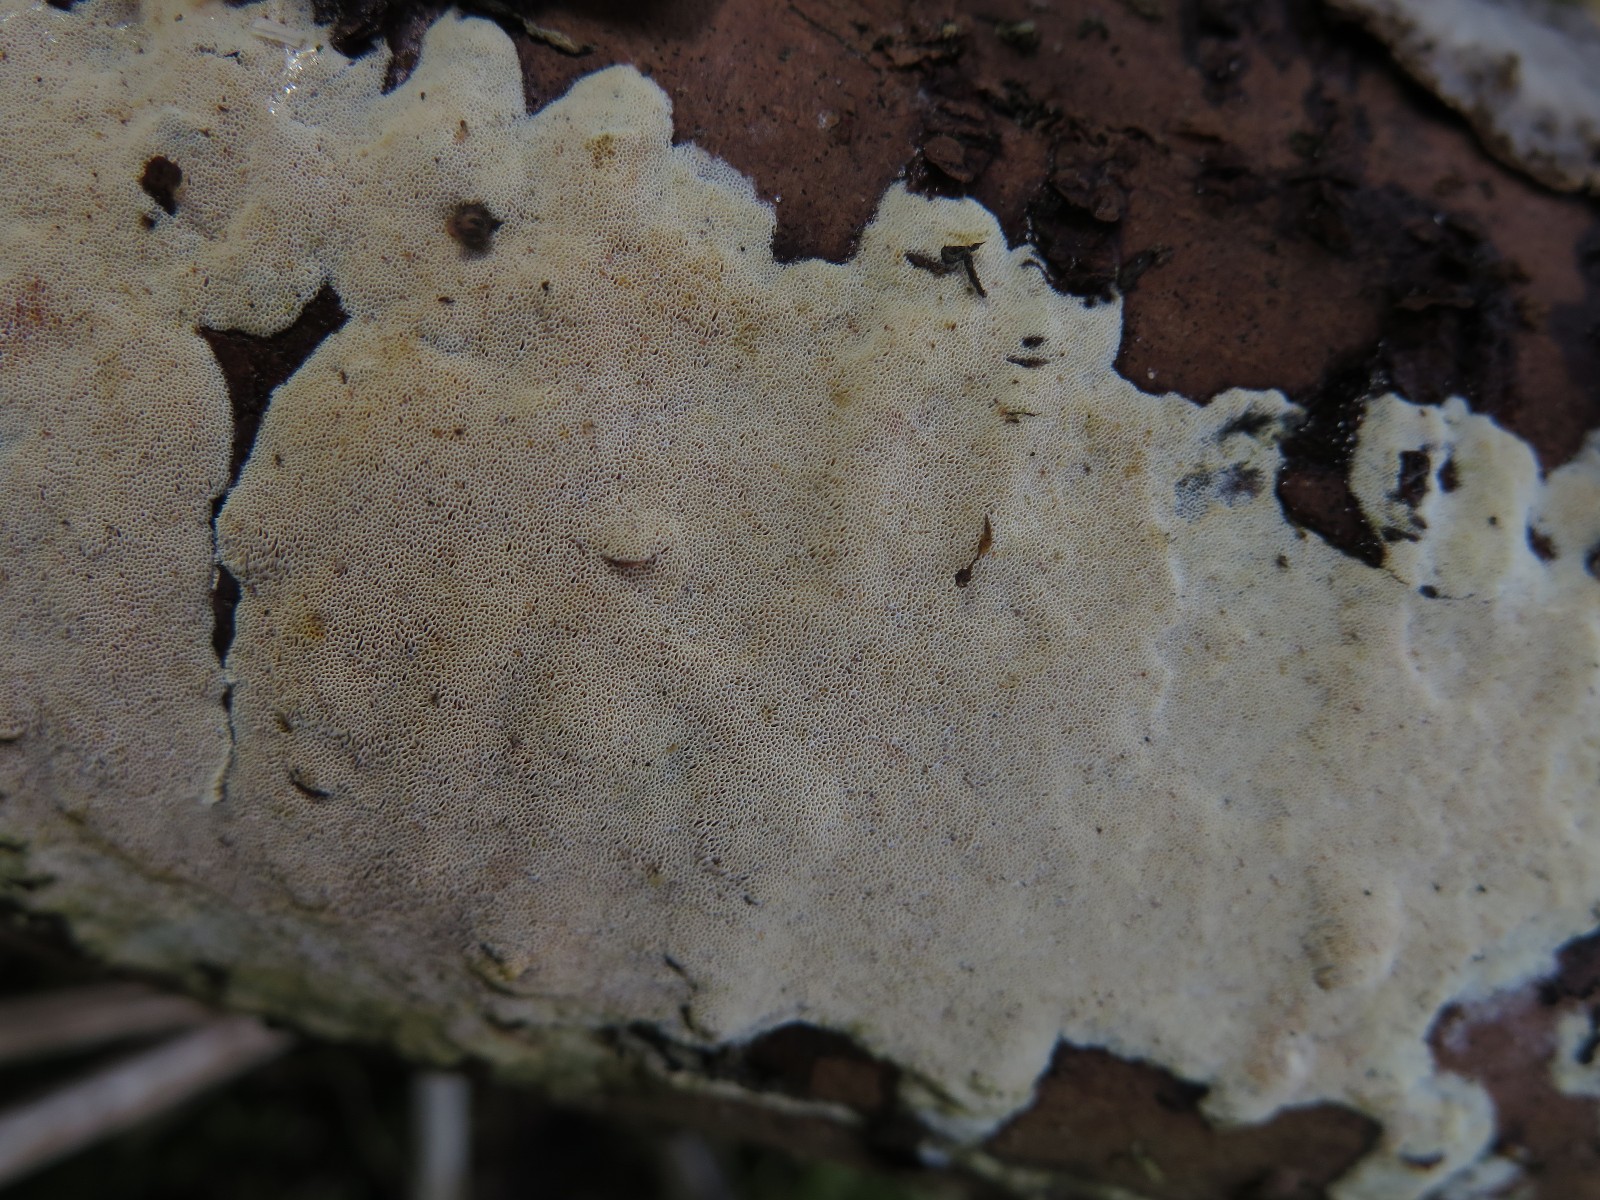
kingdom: Fungi
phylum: Basidiomycota
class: Agaricomycetes
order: Polyporales
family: Incrustoporiaceae
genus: Skeletocutis
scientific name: Skeletocutis amorpha
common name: orange krystalporesvamp
